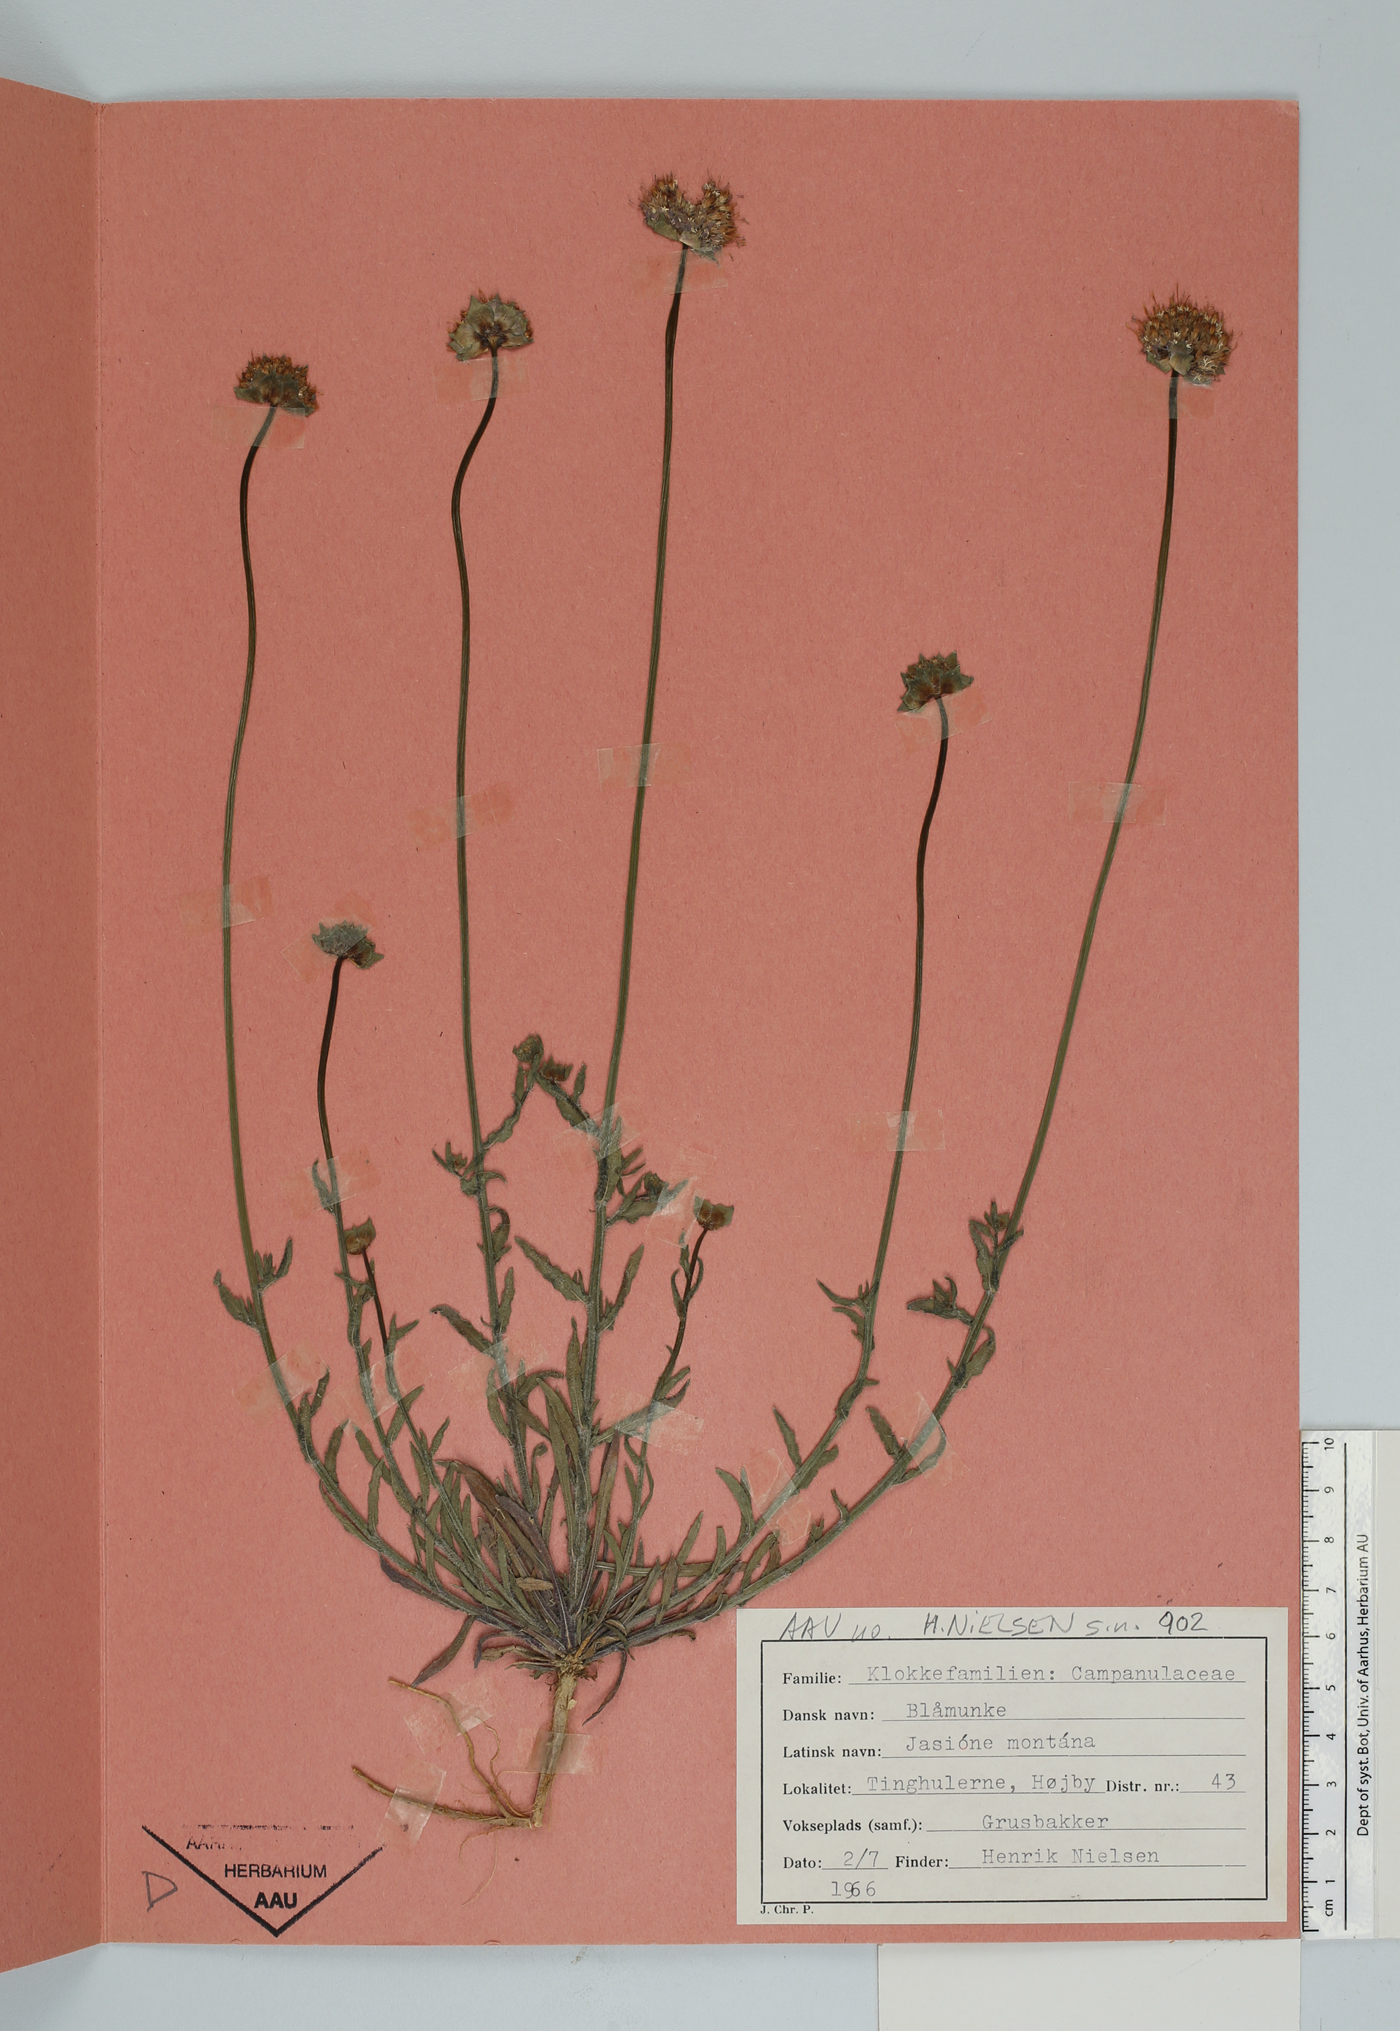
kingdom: Plantae
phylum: Tracheophyta
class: Magnoliopsida
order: Asterales
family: Campanulaceae
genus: Jasione
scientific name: Jasione montana
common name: Sheep's-bit
